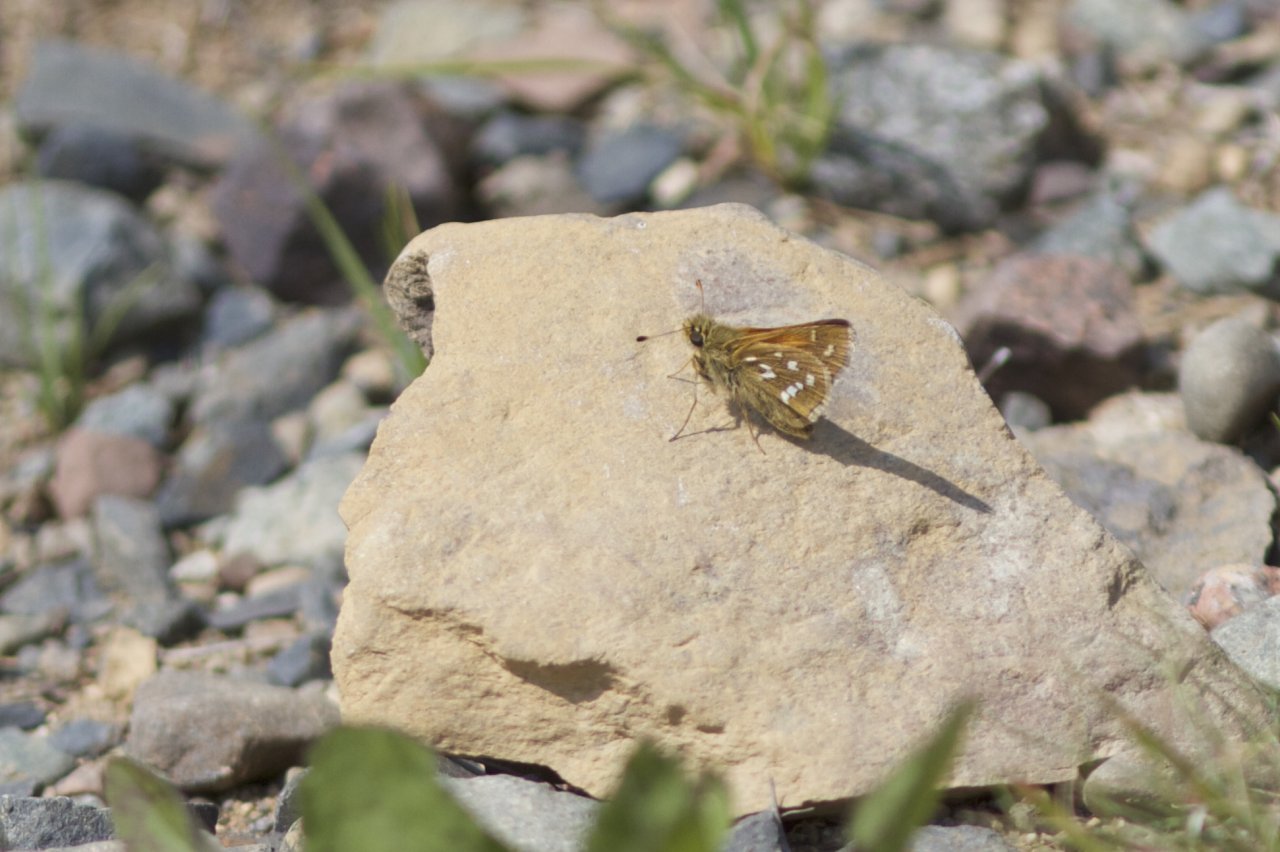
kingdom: Animalia
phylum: Arthropoda
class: Insecta
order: Lepidoptera
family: Hesperiidae
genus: Hesperia
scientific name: Hesperia comma
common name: Common Branded Skipper
